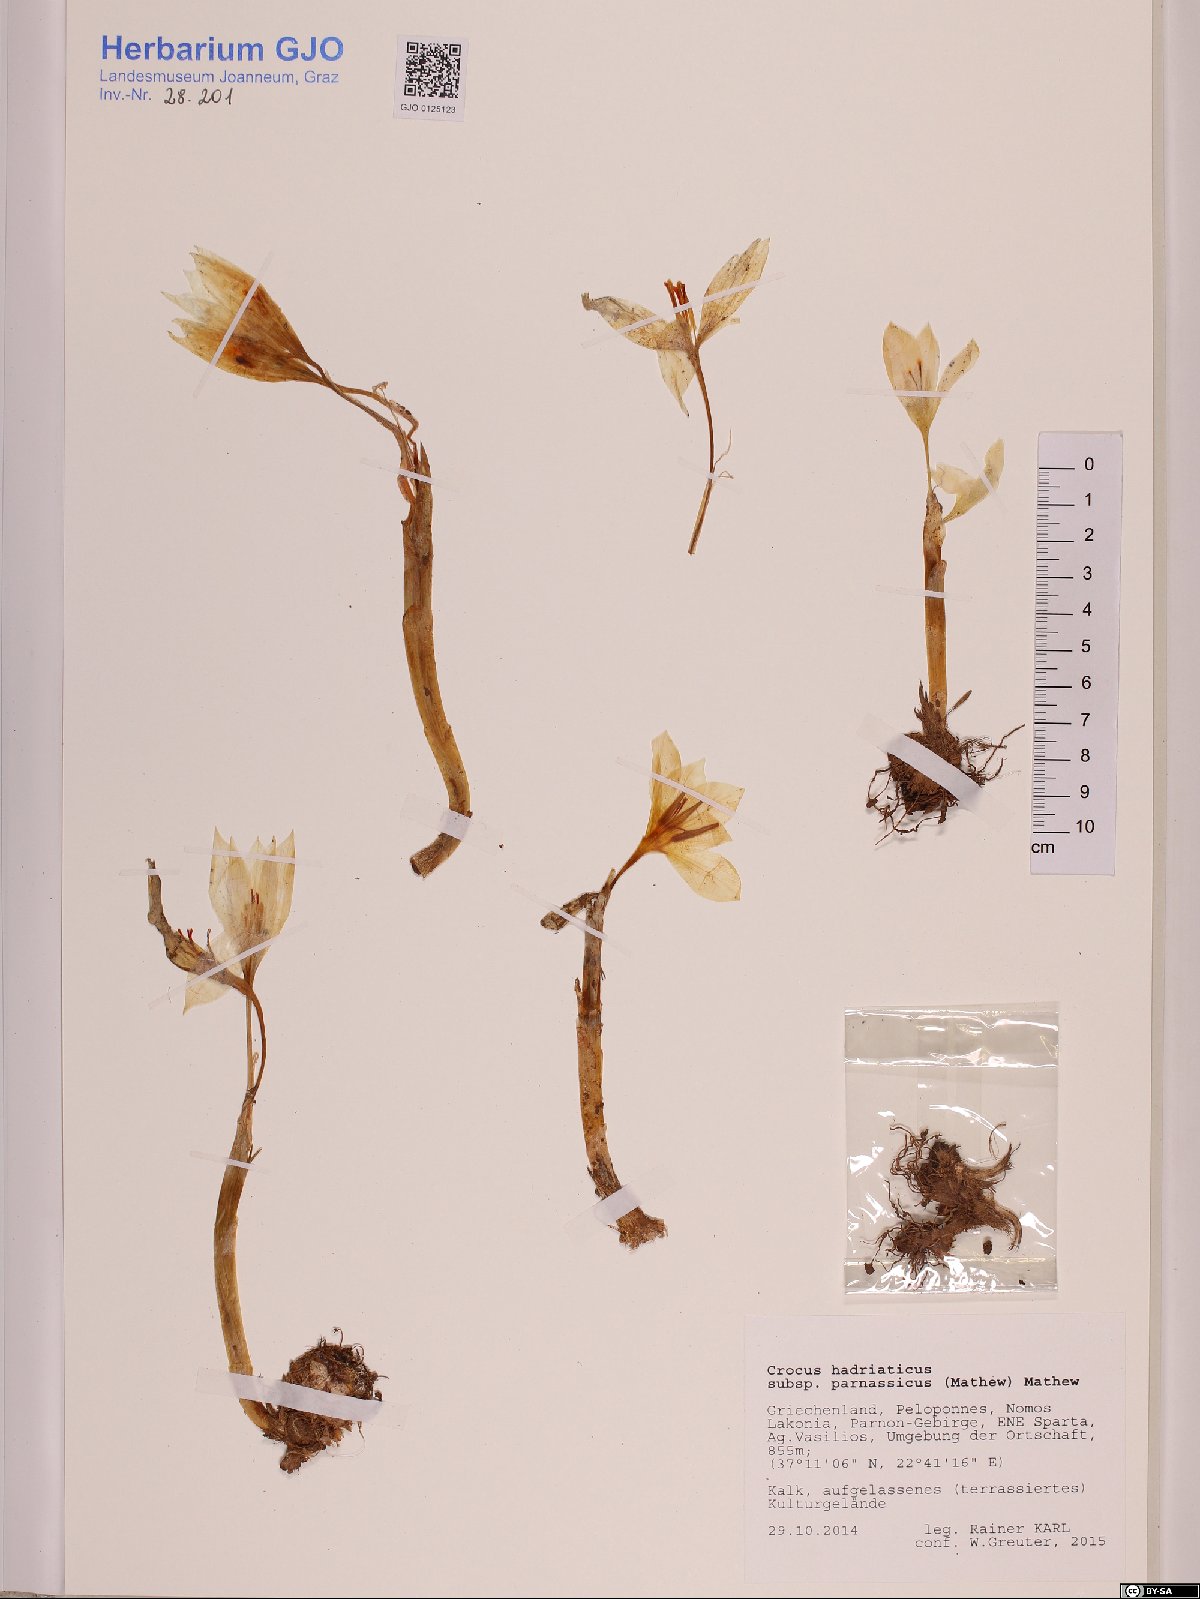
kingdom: Plantae
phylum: Tracheophyta
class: Liliopsida
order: Asparagales
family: Iridaceae
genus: Crocus
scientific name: Crocus hadriaticus
